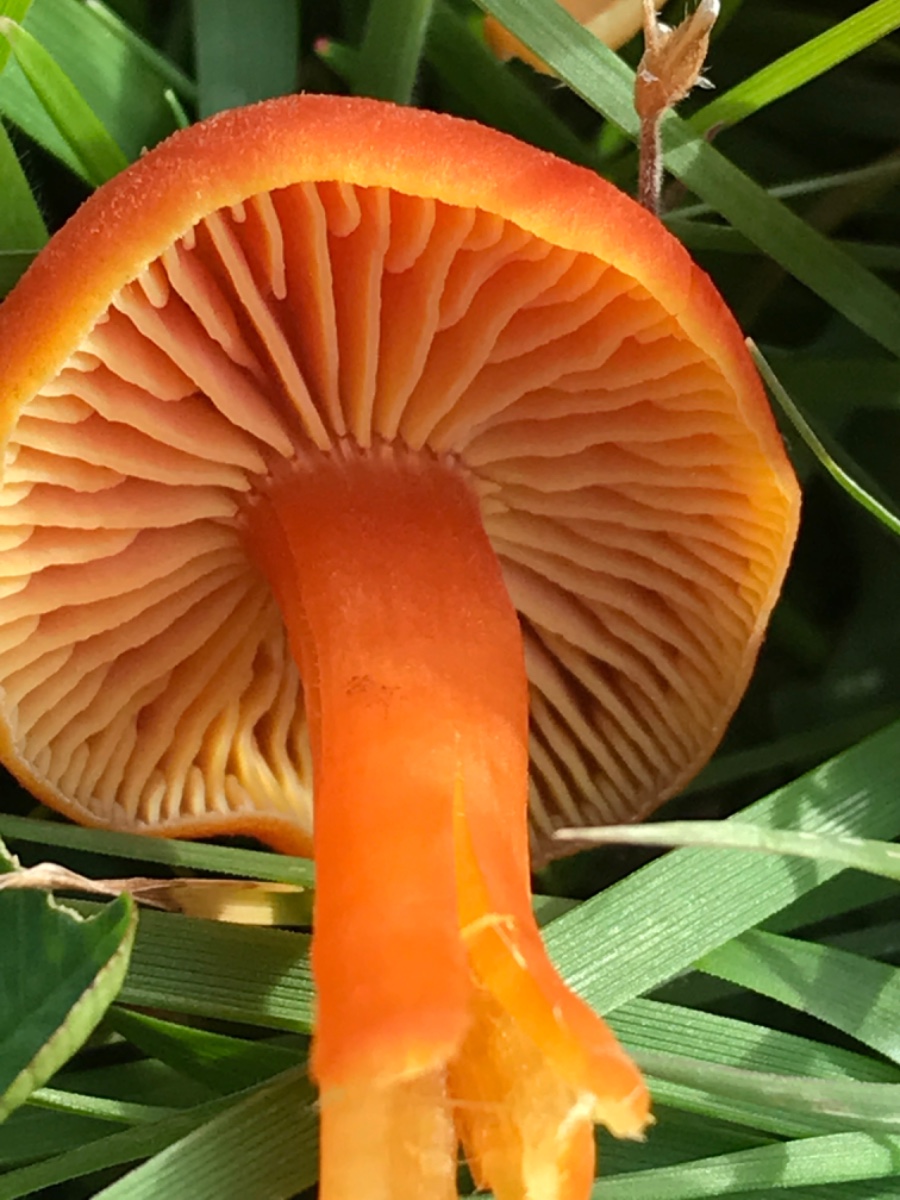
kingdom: Fungi
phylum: Basidiomycota
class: Agaricomycetes
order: Agaricales
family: Hygrophoraceae
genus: Hygrocybe
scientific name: Hygrocybe miniata
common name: mønje-vokshat
